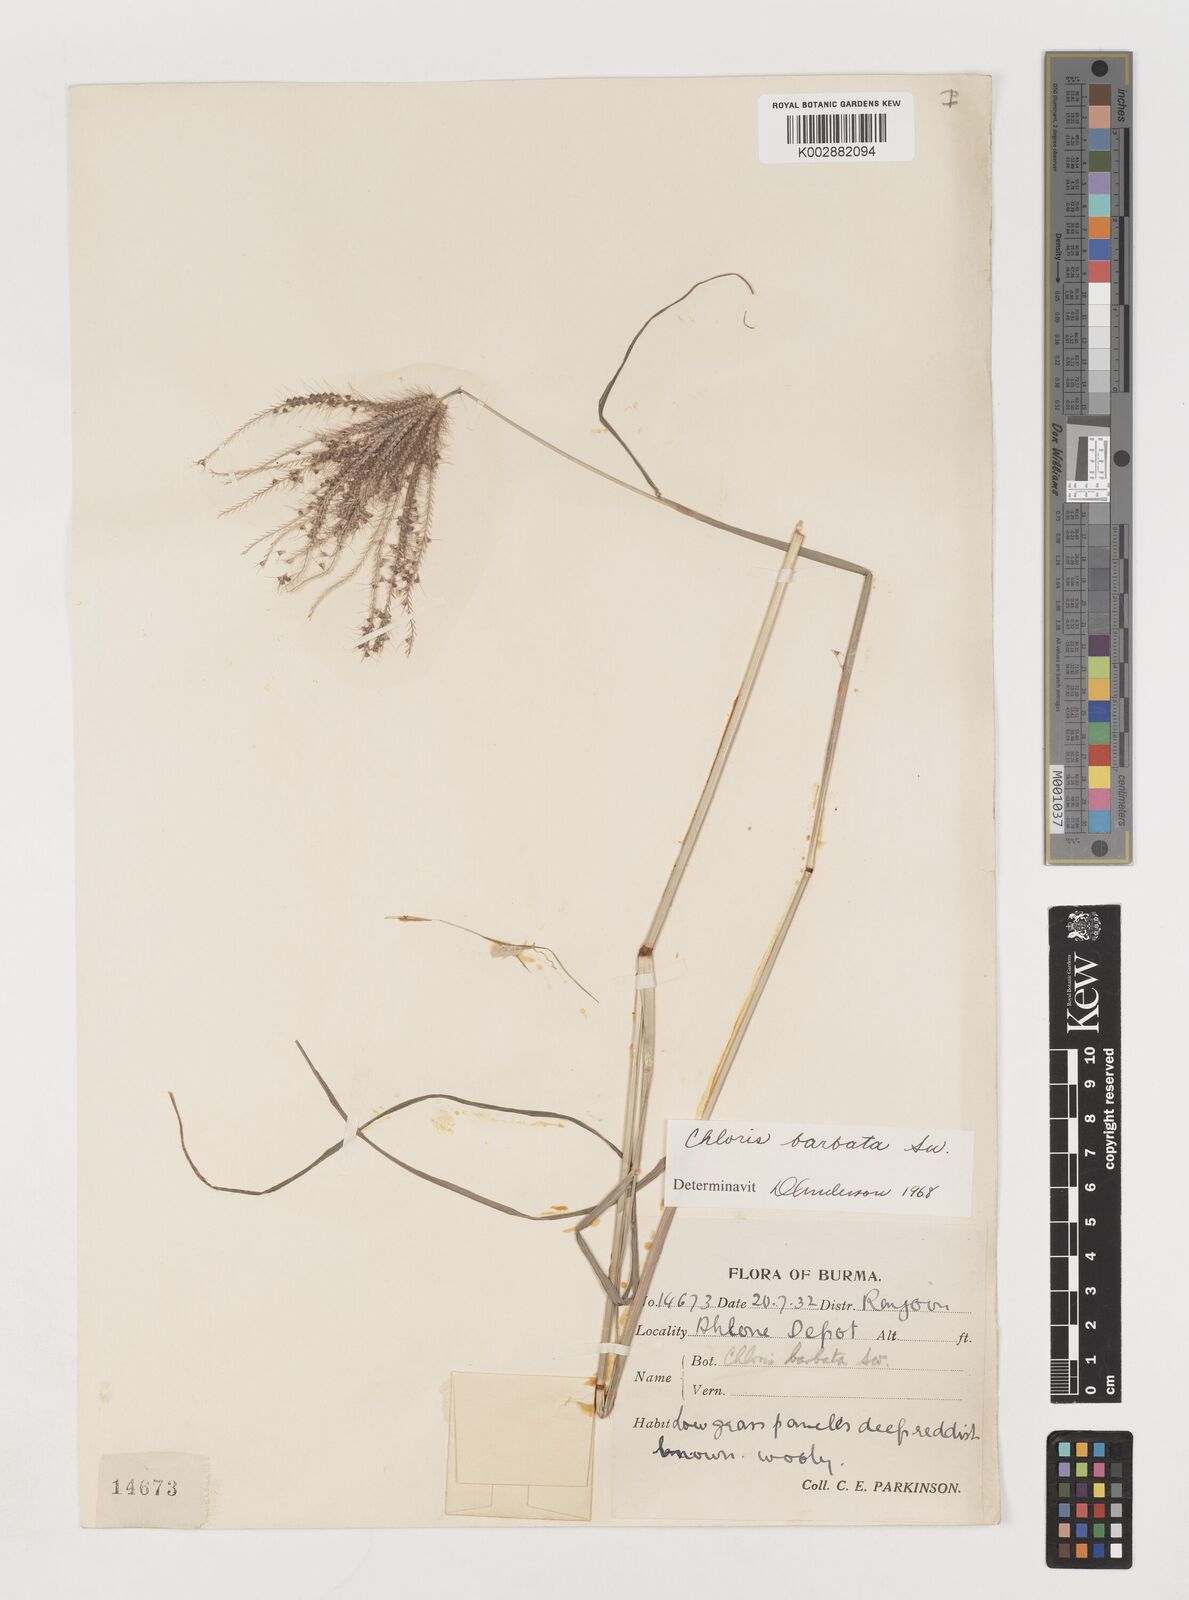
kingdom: Plantae
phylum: Tracheophyta
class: Liliopsida
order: Poales
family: Poaceae
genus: Chloris
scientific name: Chloris barbata
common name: Swollen fingergrass
